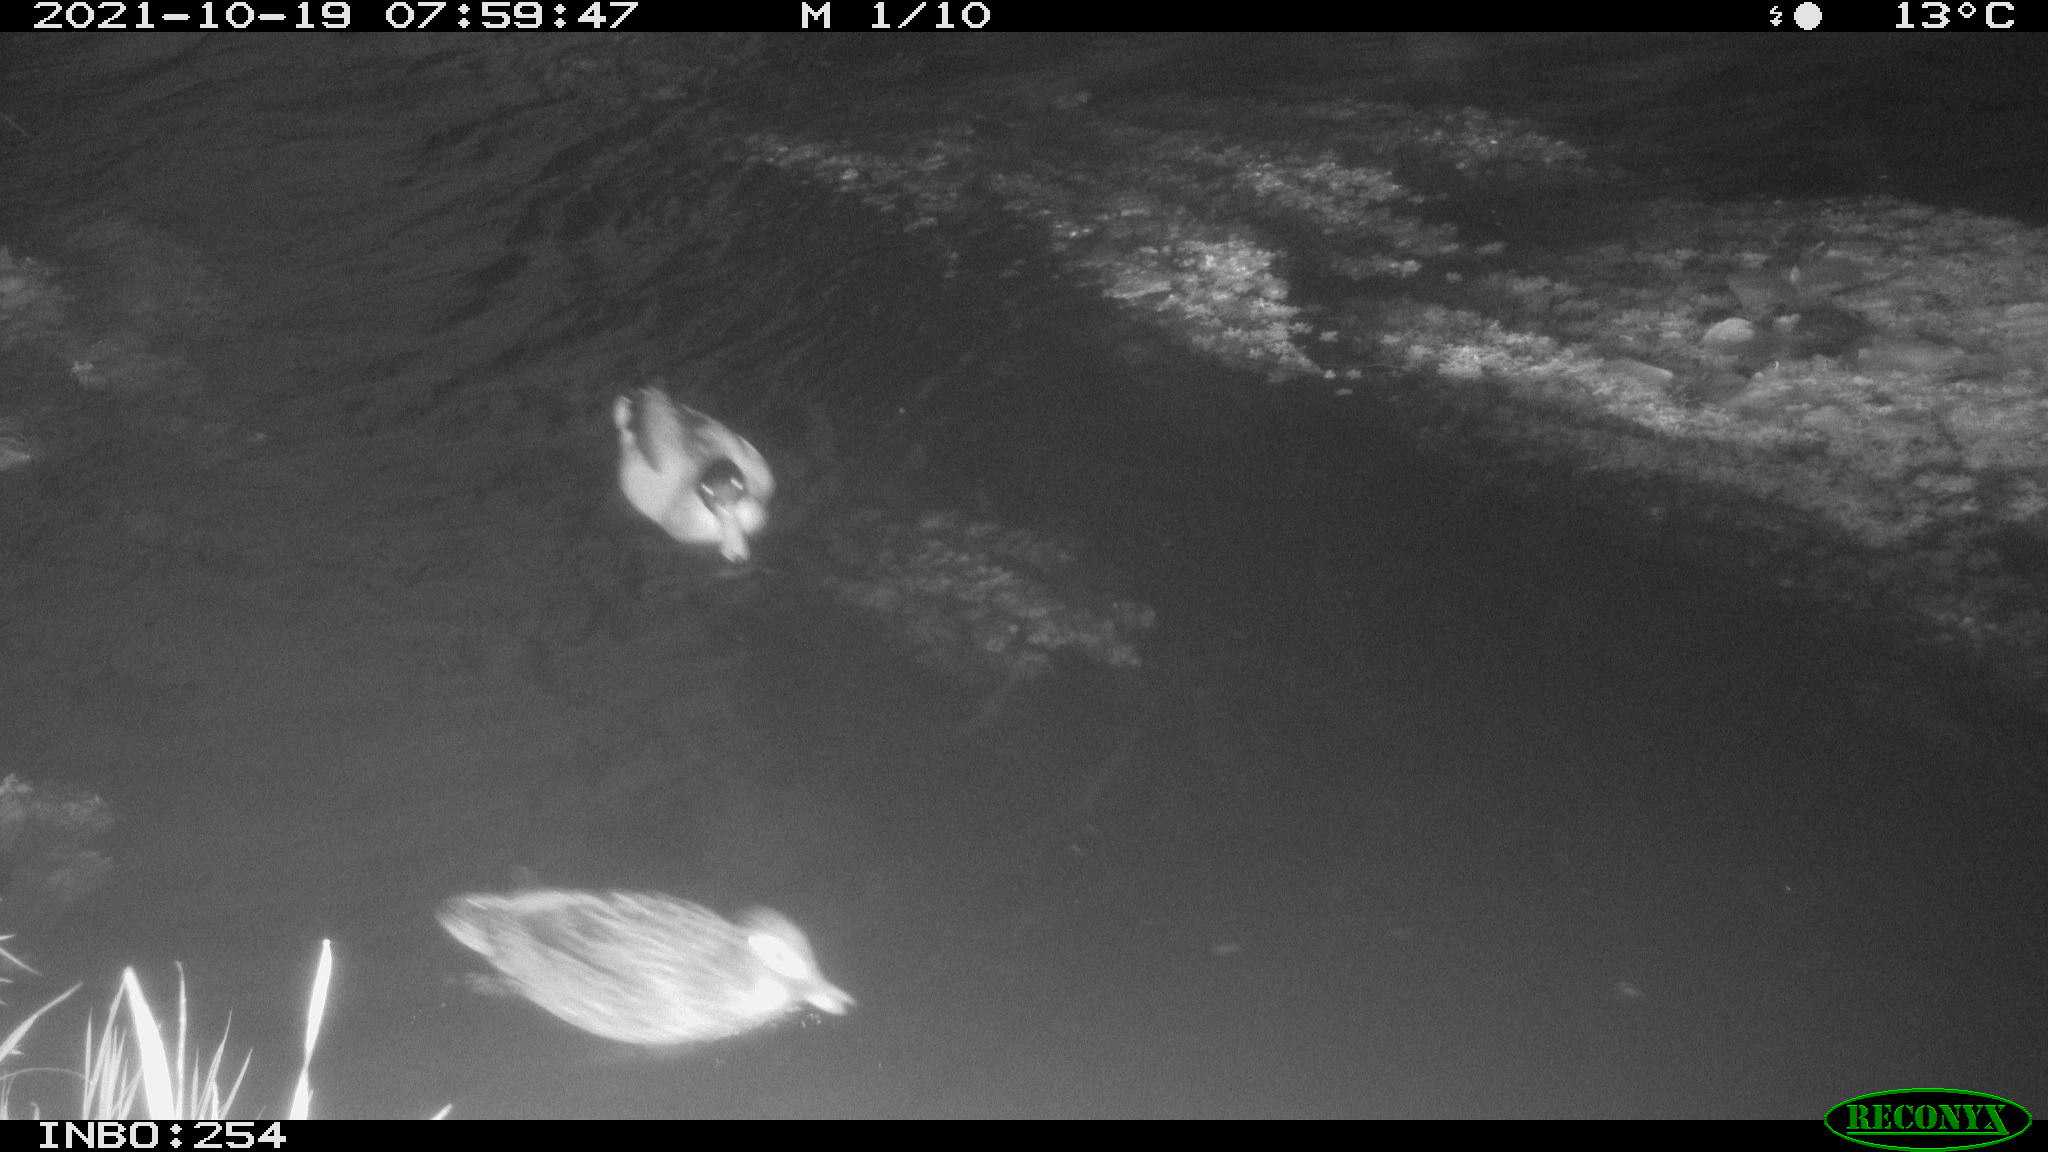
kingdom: Animalia
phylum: Chordata
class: Aves
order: Anseriformes
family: Anatidae
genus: Anas
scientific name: Anas platyrhynchos
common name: Mallard
